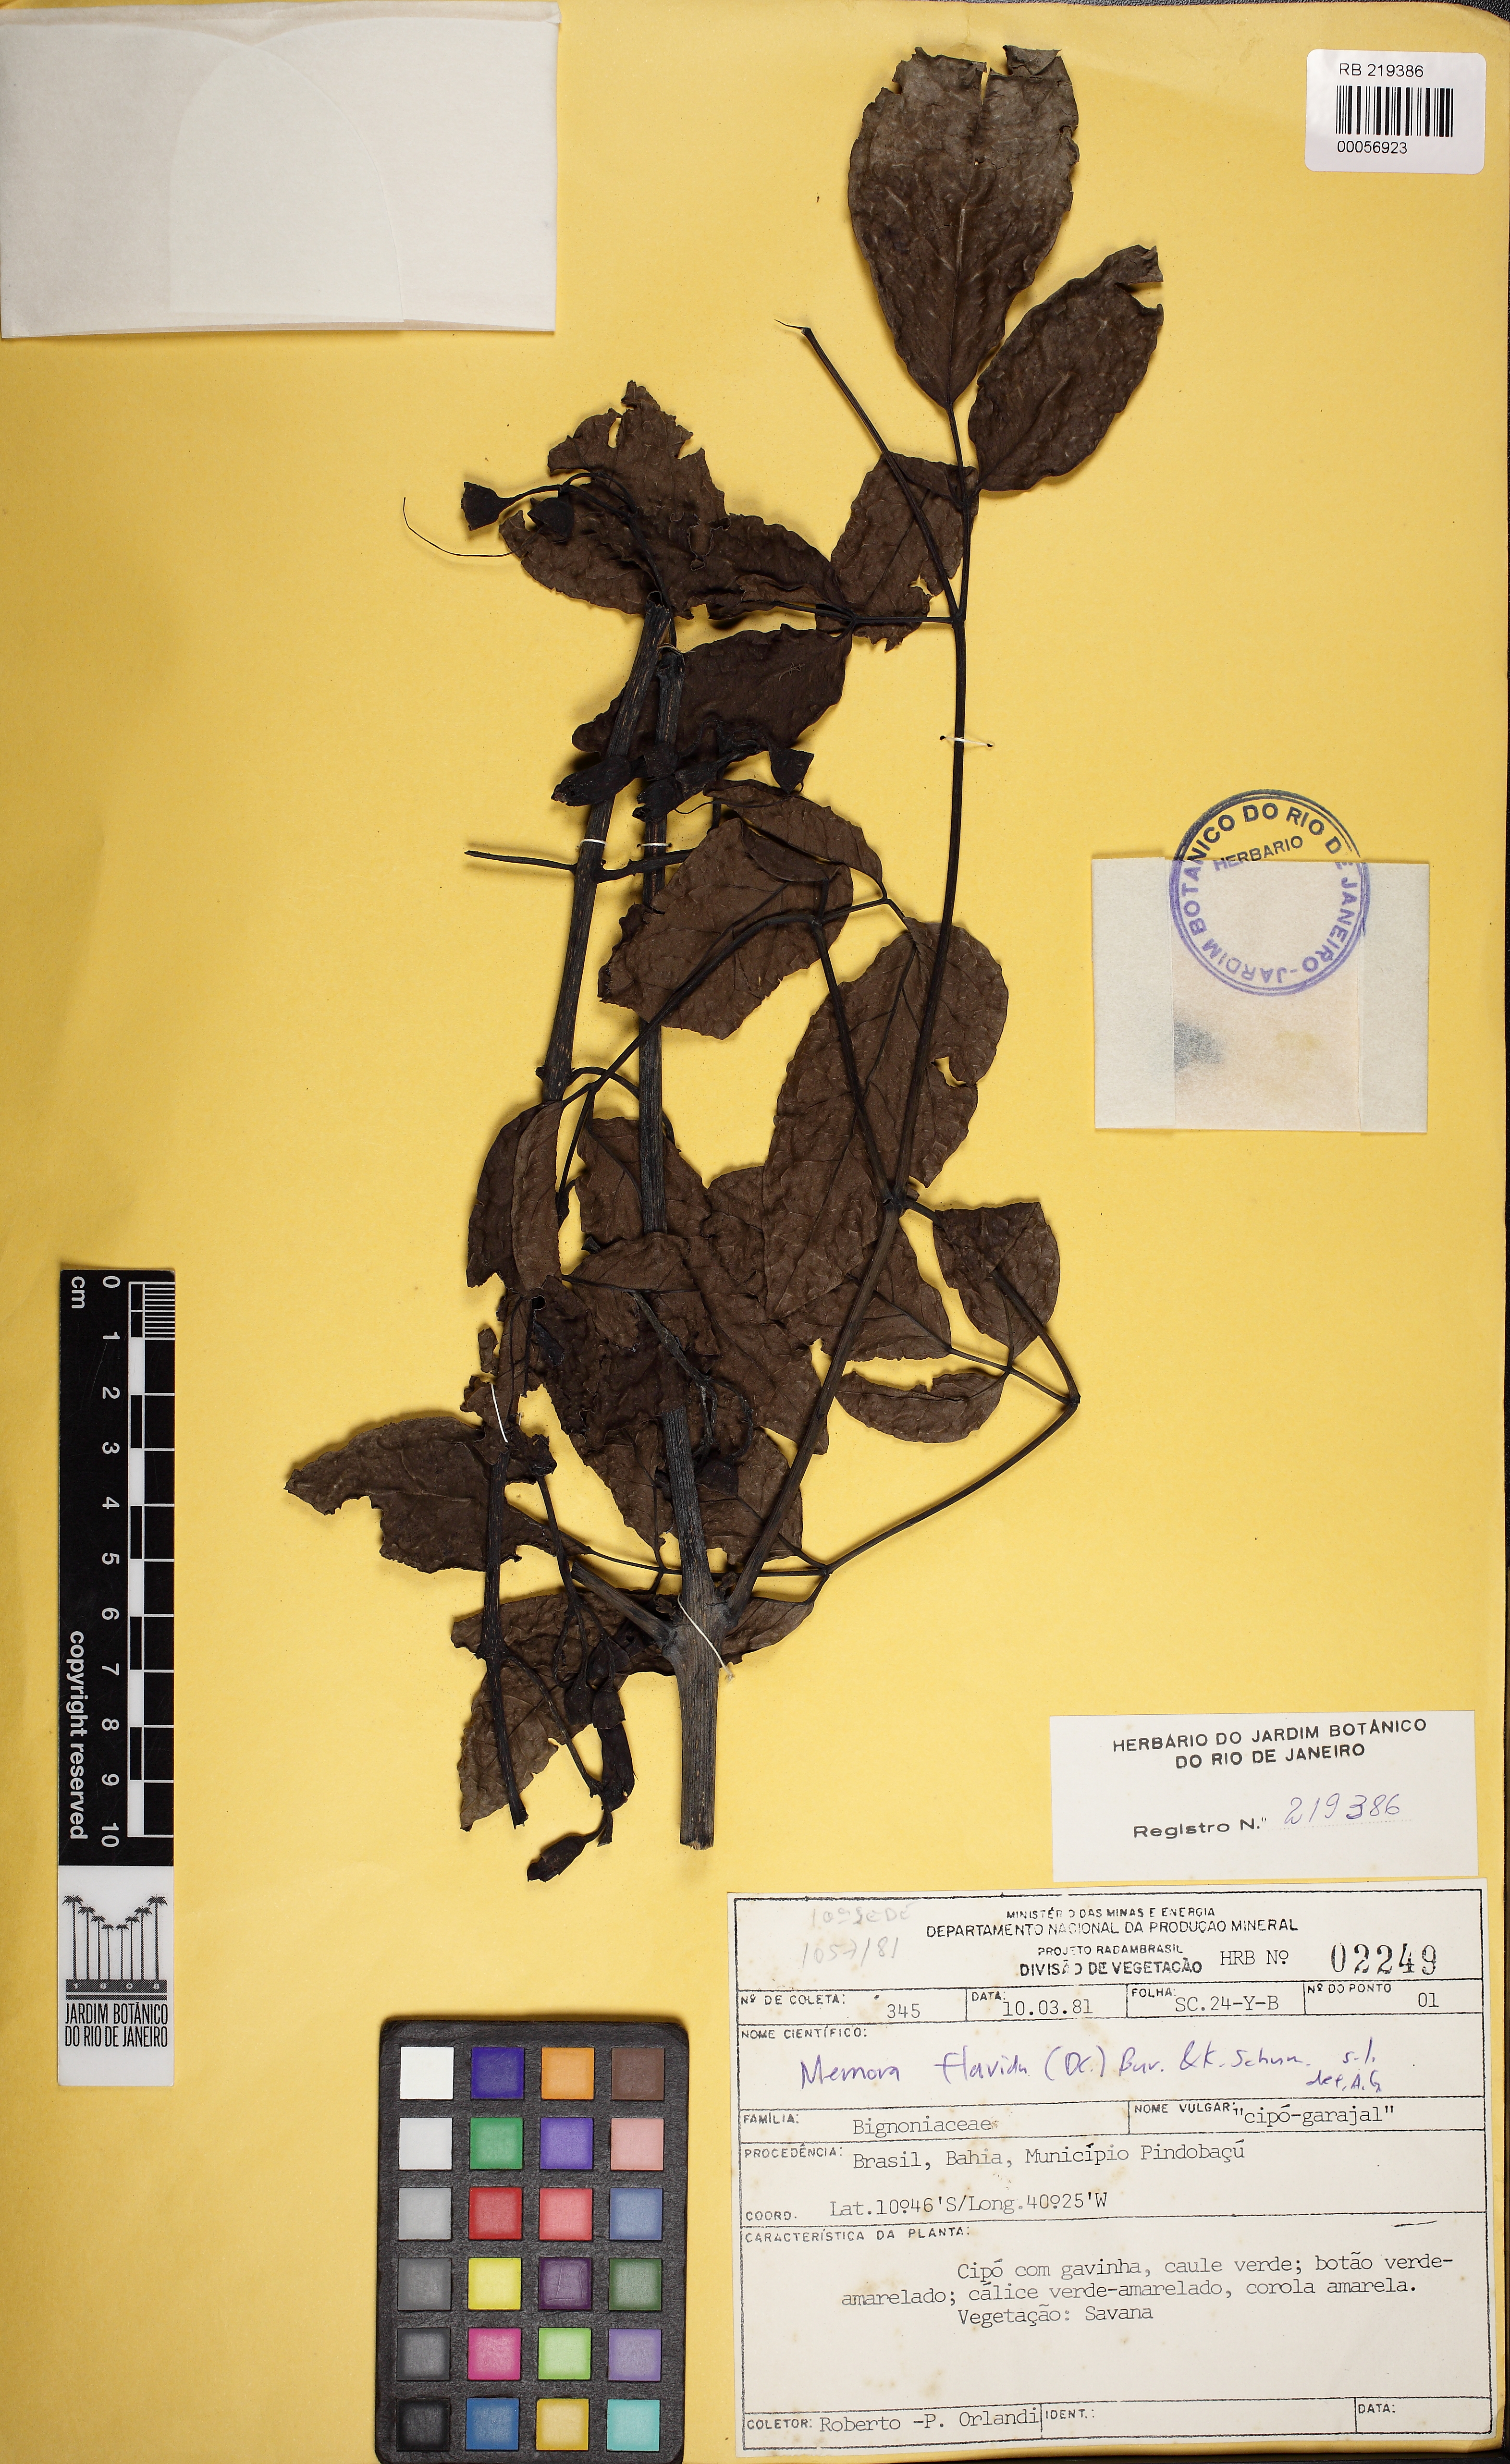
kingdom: Plantae
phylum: Tracheophyta
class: Magnoliopsida
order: Lamiales
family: Bignoniaceae
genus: Adenocalymma
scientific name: Adenocalymma validum
